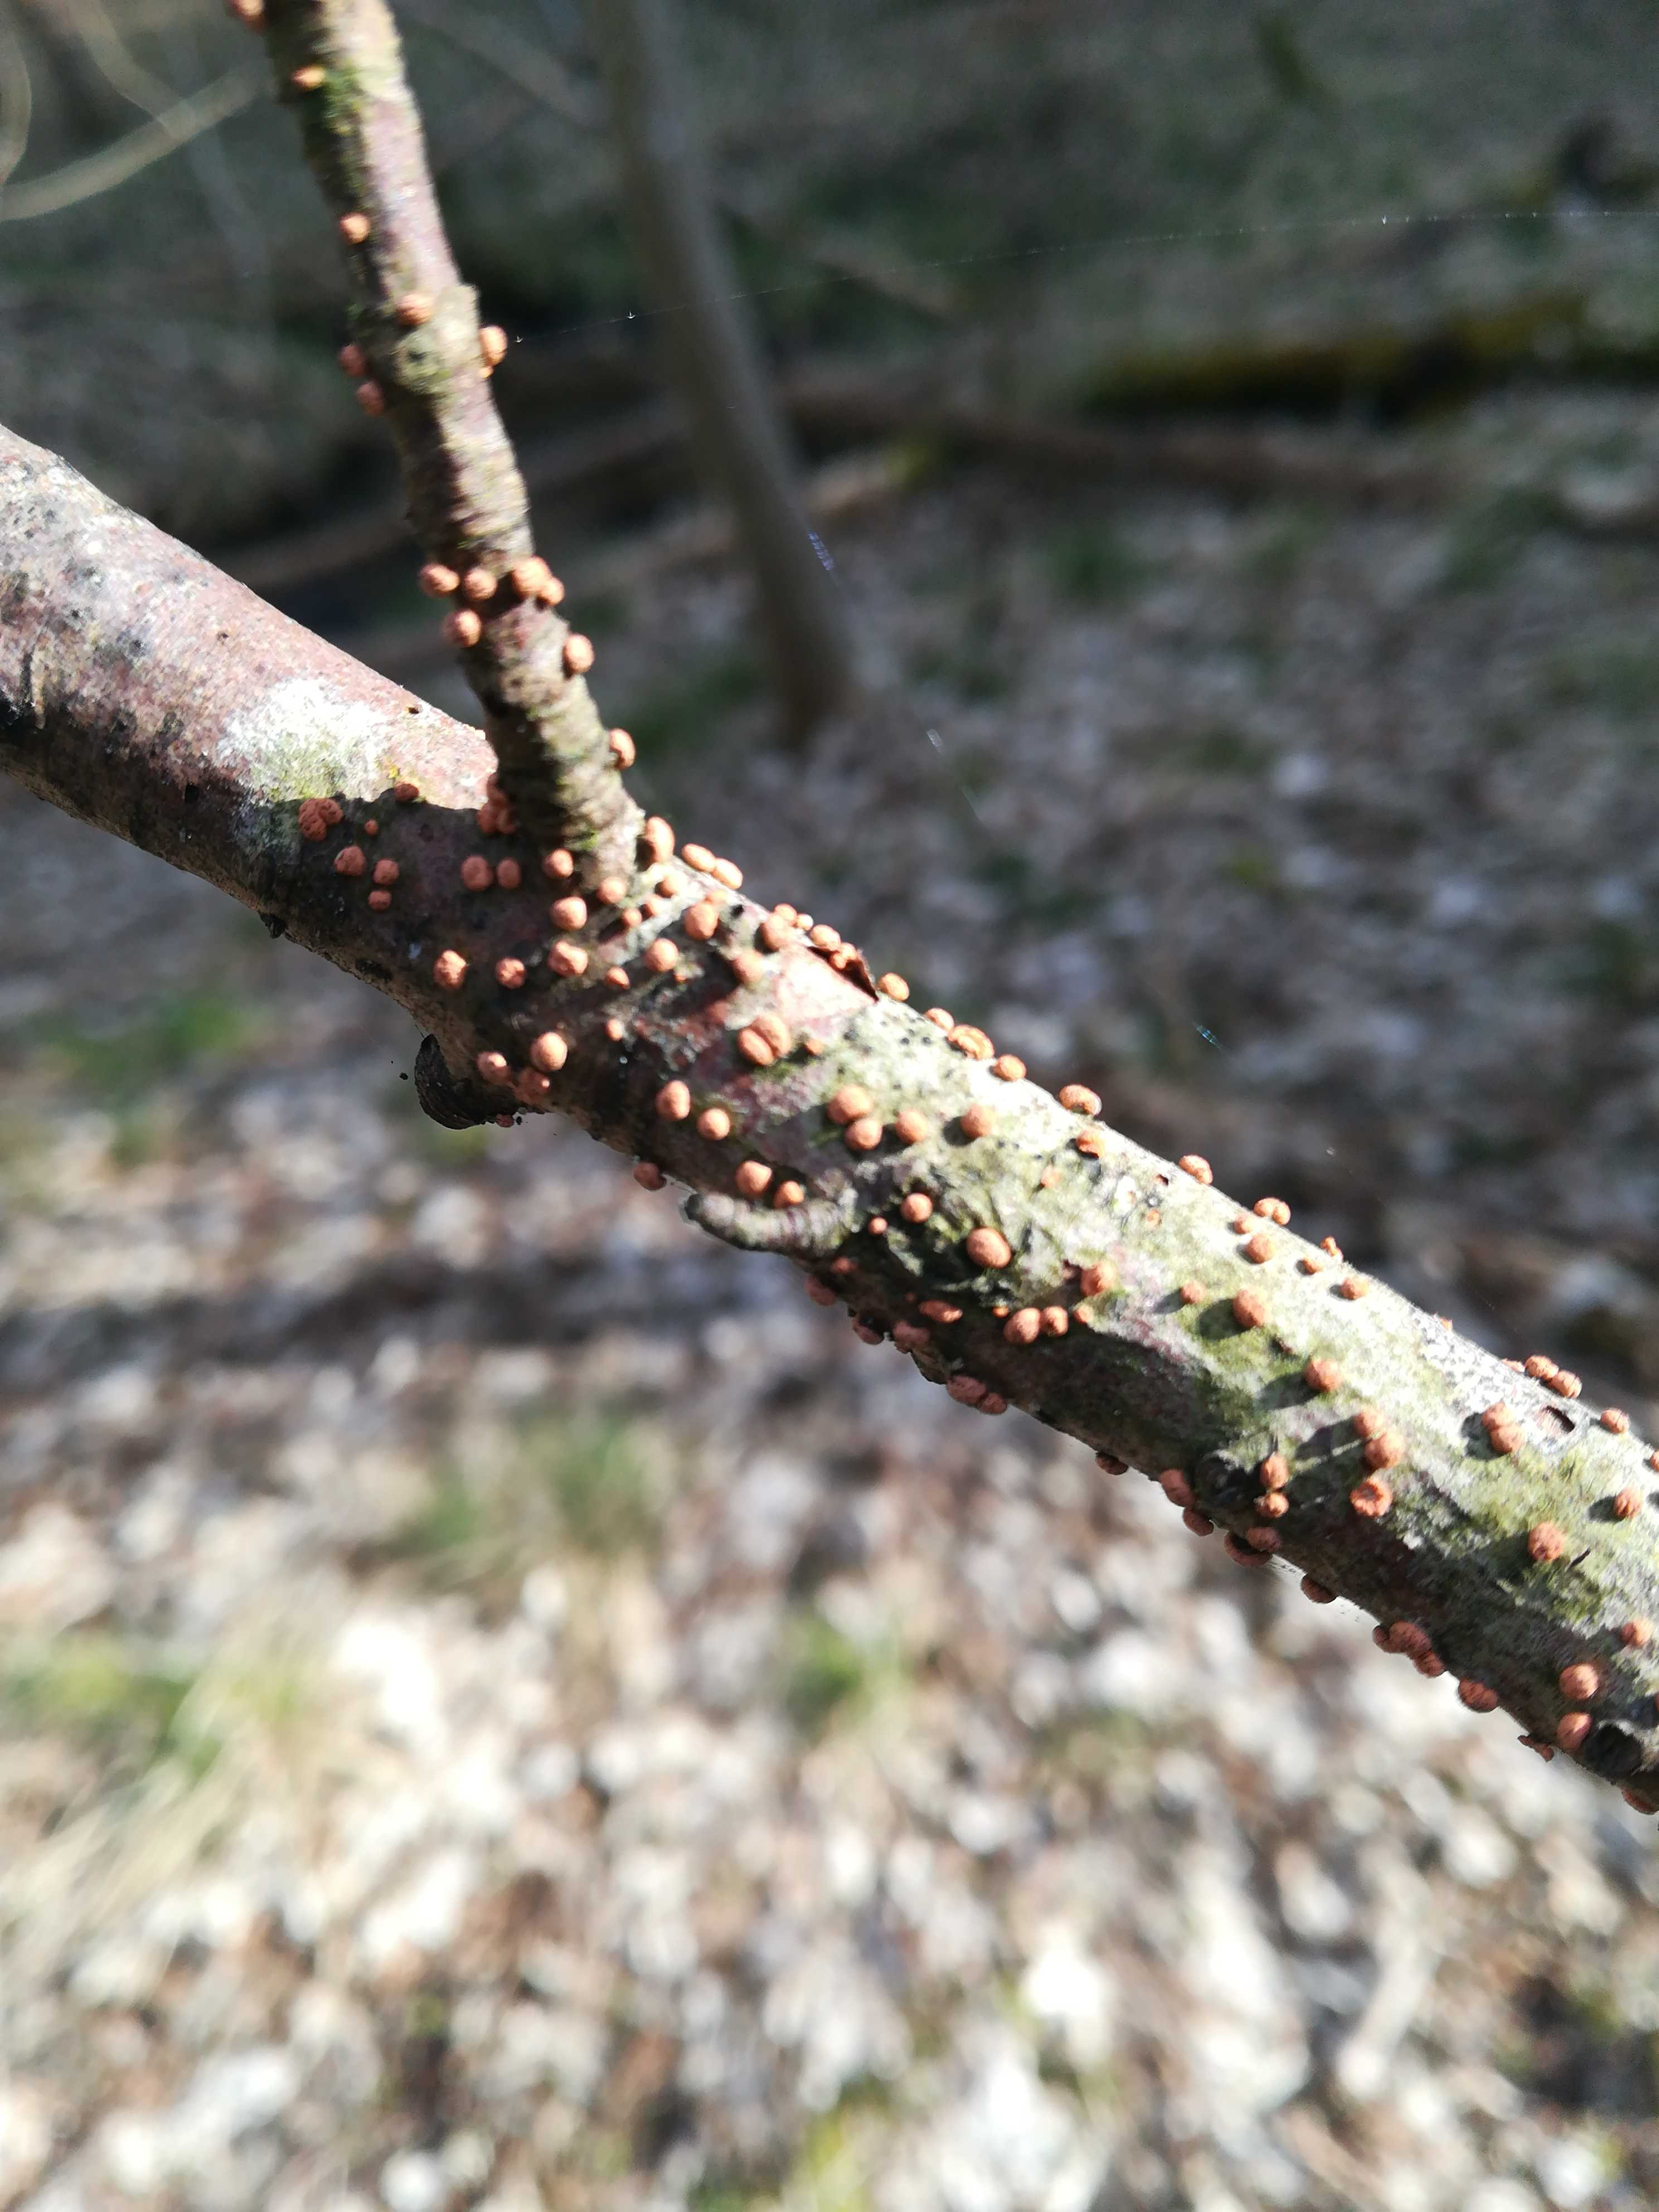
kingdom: Fungi
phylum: Ascomycota
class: Sordariomycetes
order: Hypocreales
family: Nectriaceae
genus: Nectria
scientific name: Nectria cinnabarina
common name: almindelig cinnobersvamp
